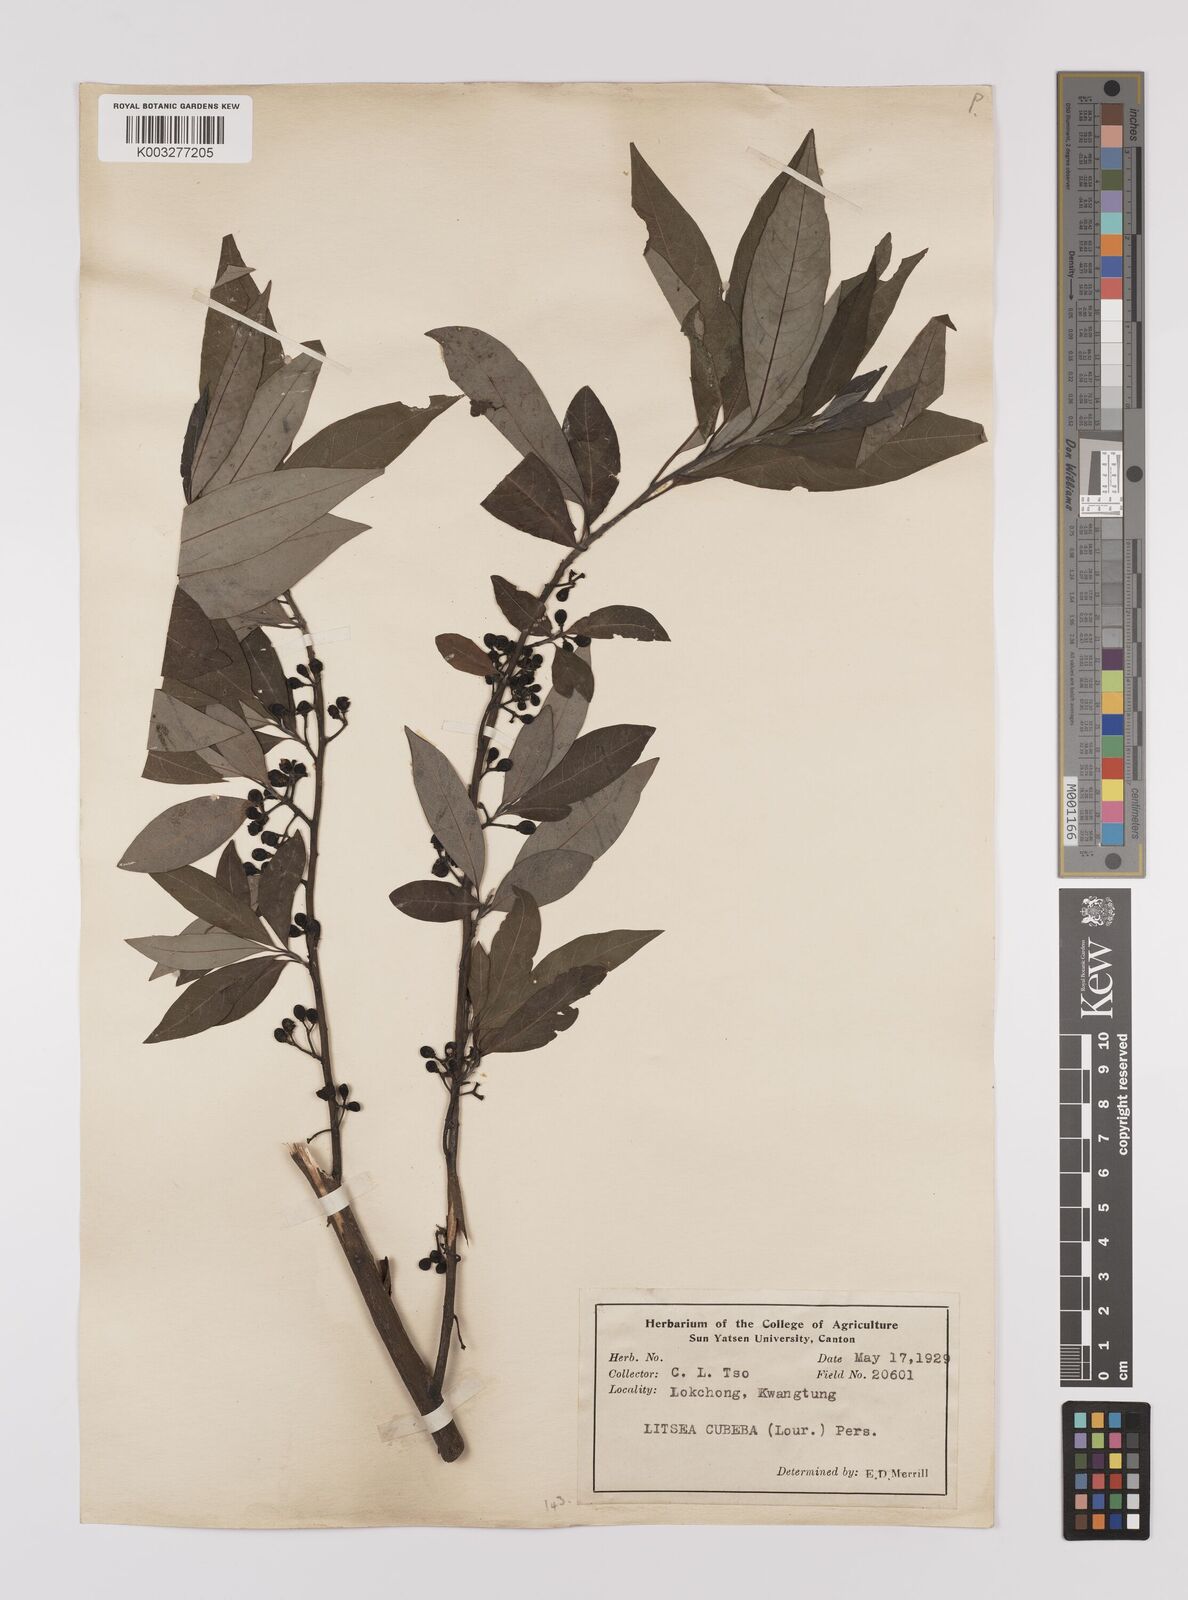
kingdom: Plantae
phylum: Tracheophyta
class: Magnoliopsida
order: Laurales
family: Lauraceae
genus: Litsea
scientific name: Litsea cubeba
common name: Mountain-pepper
